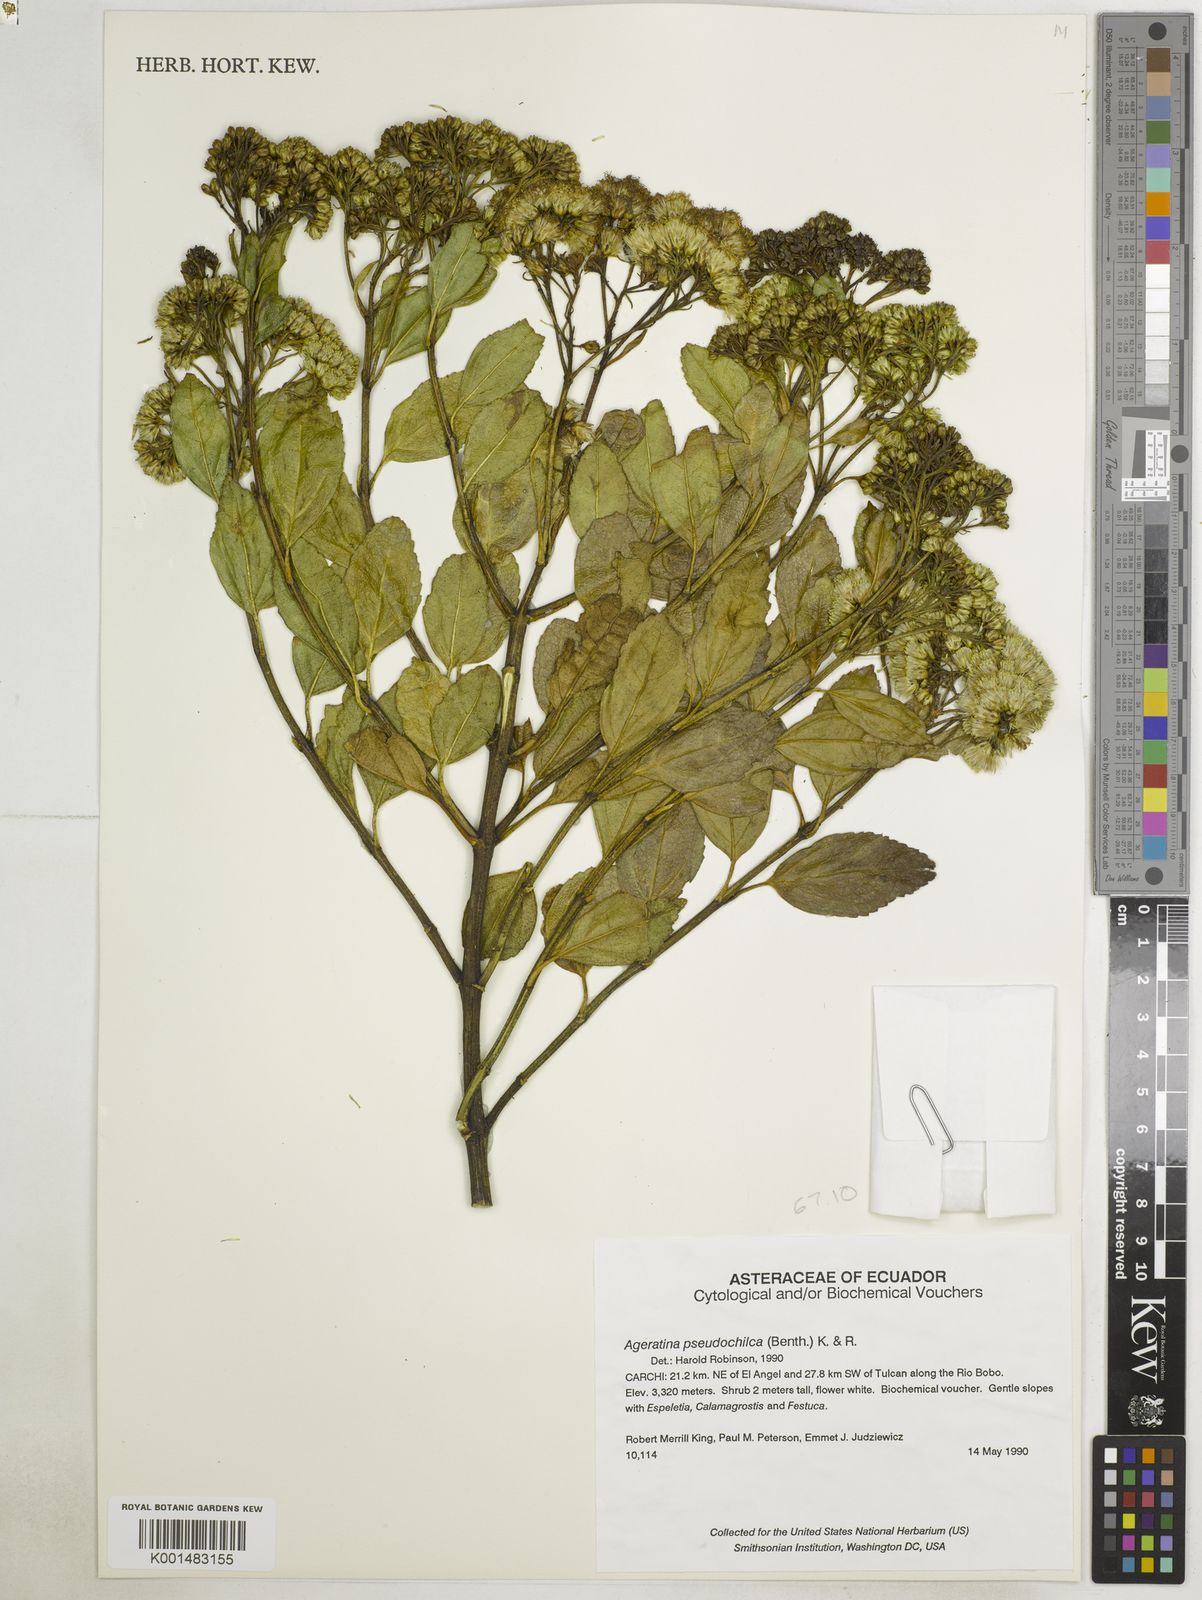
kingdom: Plantae
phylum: Tracheophyta
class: Magnoliopsida
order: Asterales
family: Asteraceae
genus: Ageratina
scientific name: Ageratina pseudochilca
